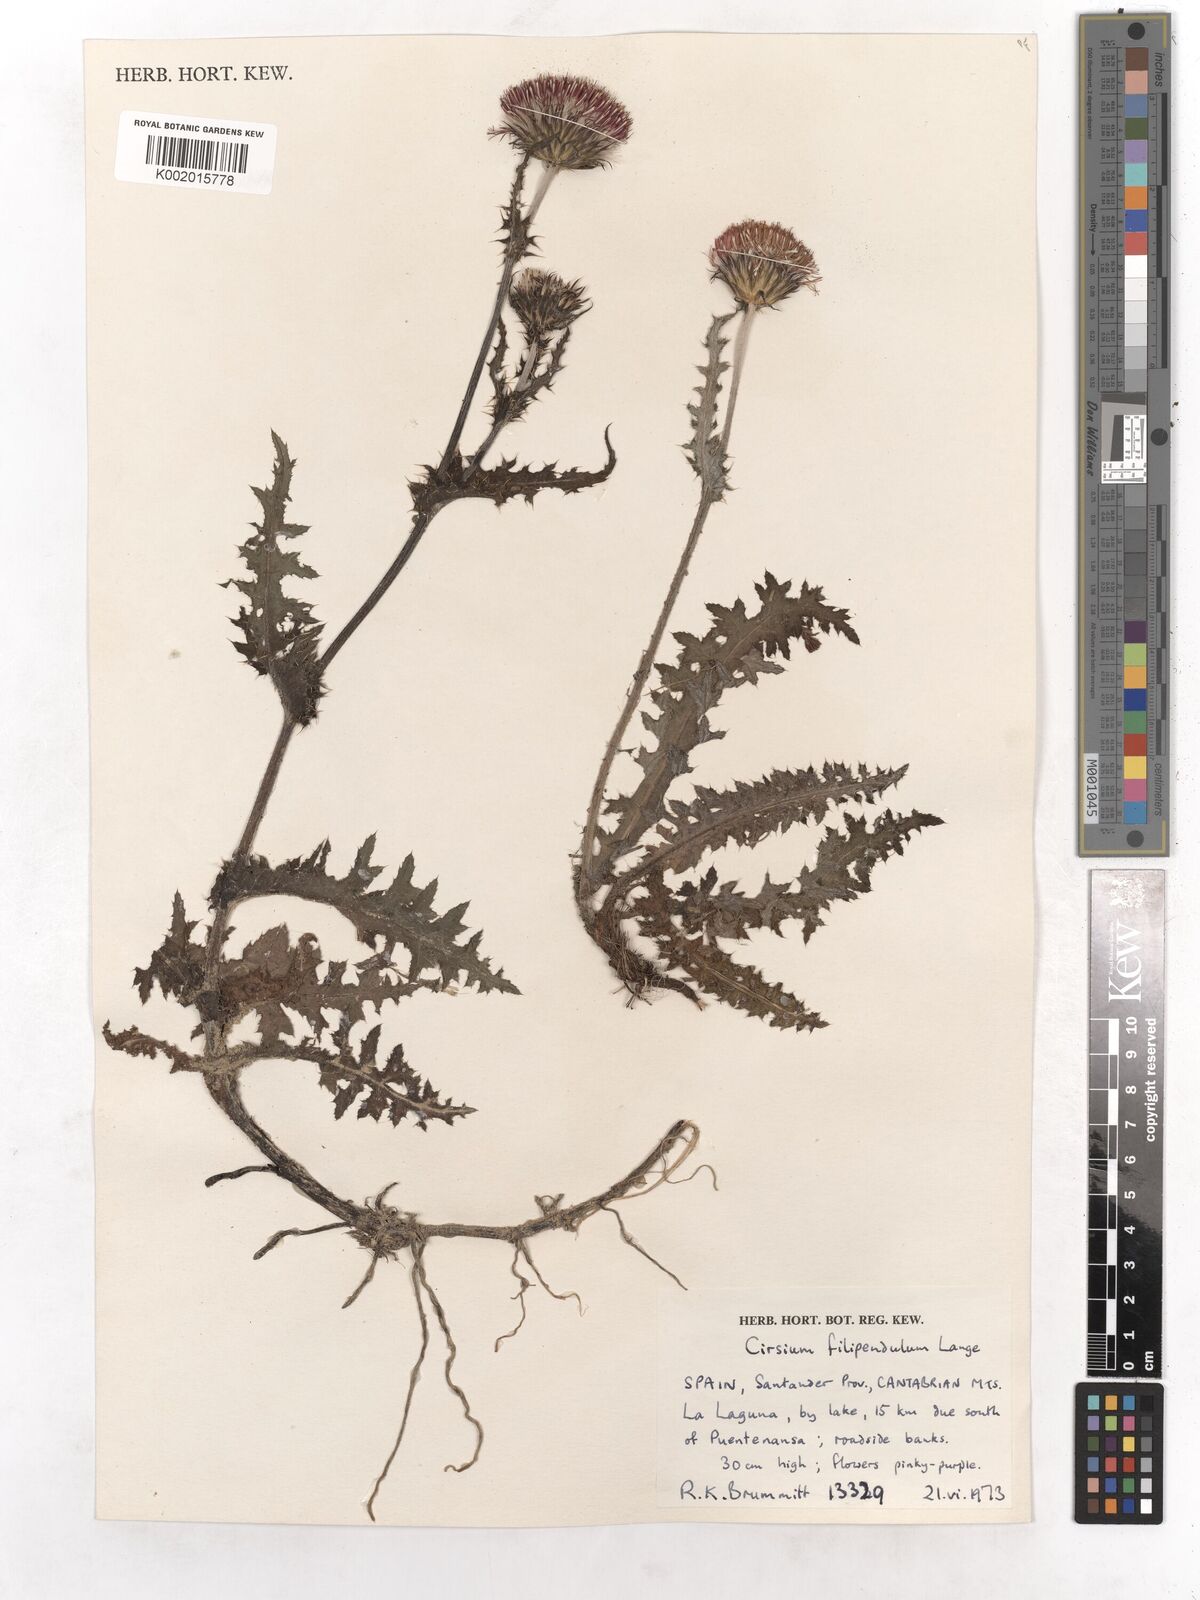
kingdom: Plantae
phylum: Tracheophyta
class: Magnoliopsida
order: Asterales
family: Asteraceae
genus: Cirsium
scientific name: Cirsium filipendulum
